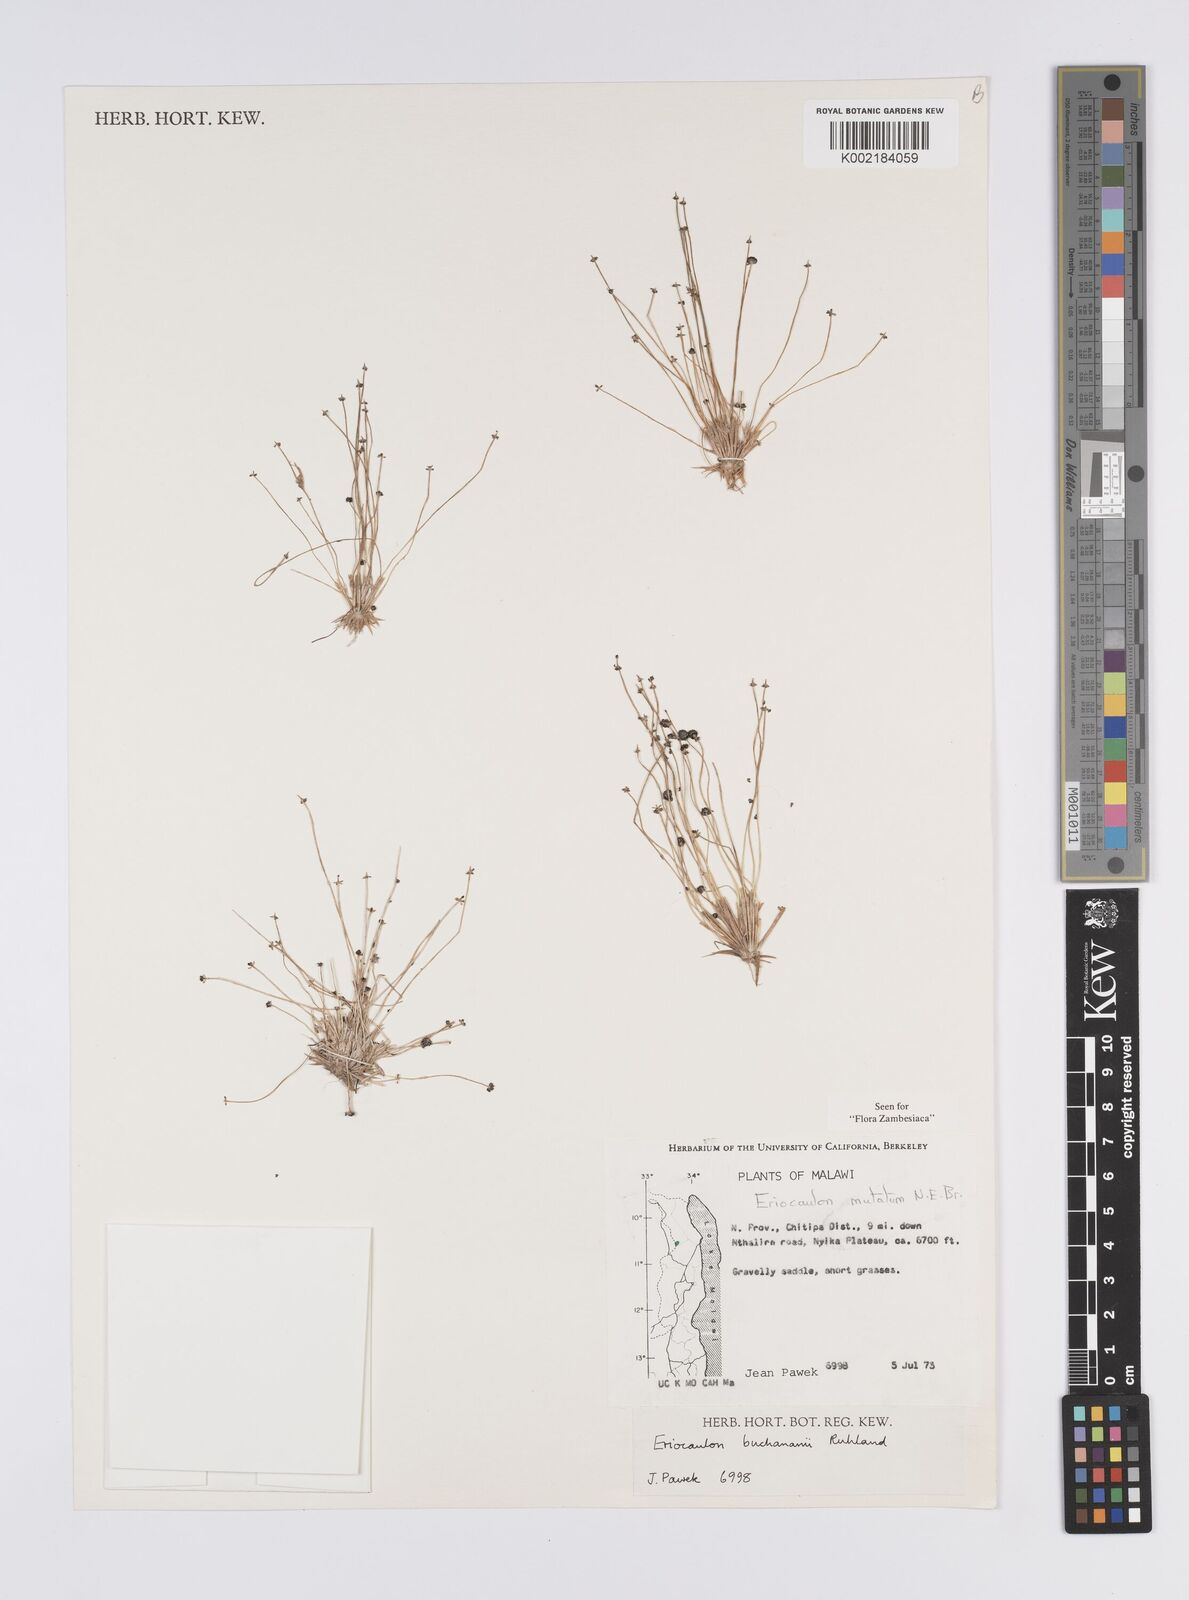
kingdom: Plantae
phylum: Tracheophyta
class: Liliopsida
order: Poales
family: Eriocaulaceae
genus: Eriocaulon
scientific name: Eriocaulon mutatum
